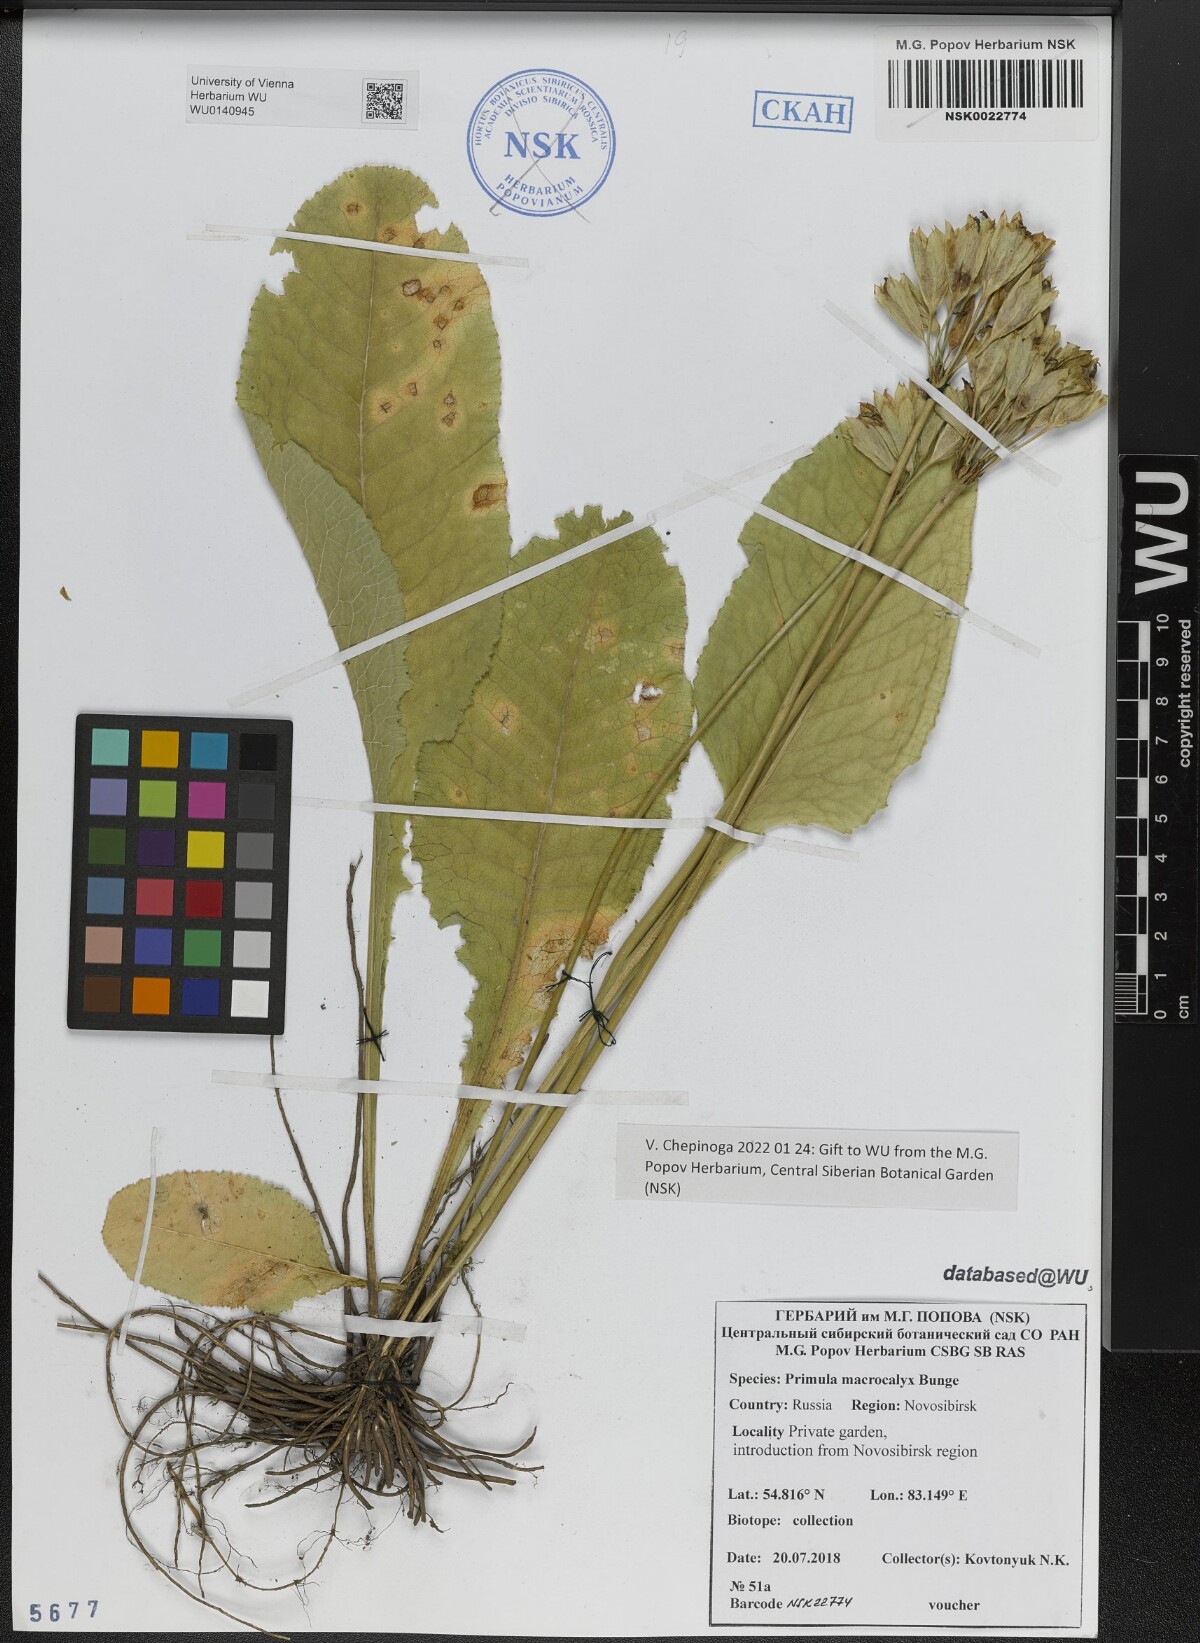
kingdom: Plantae
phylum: Tracheophyta
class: Magnoliopsida
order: Ericales
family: Primulaceae
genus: Primula
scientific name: Primula veris
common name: Cowslip
